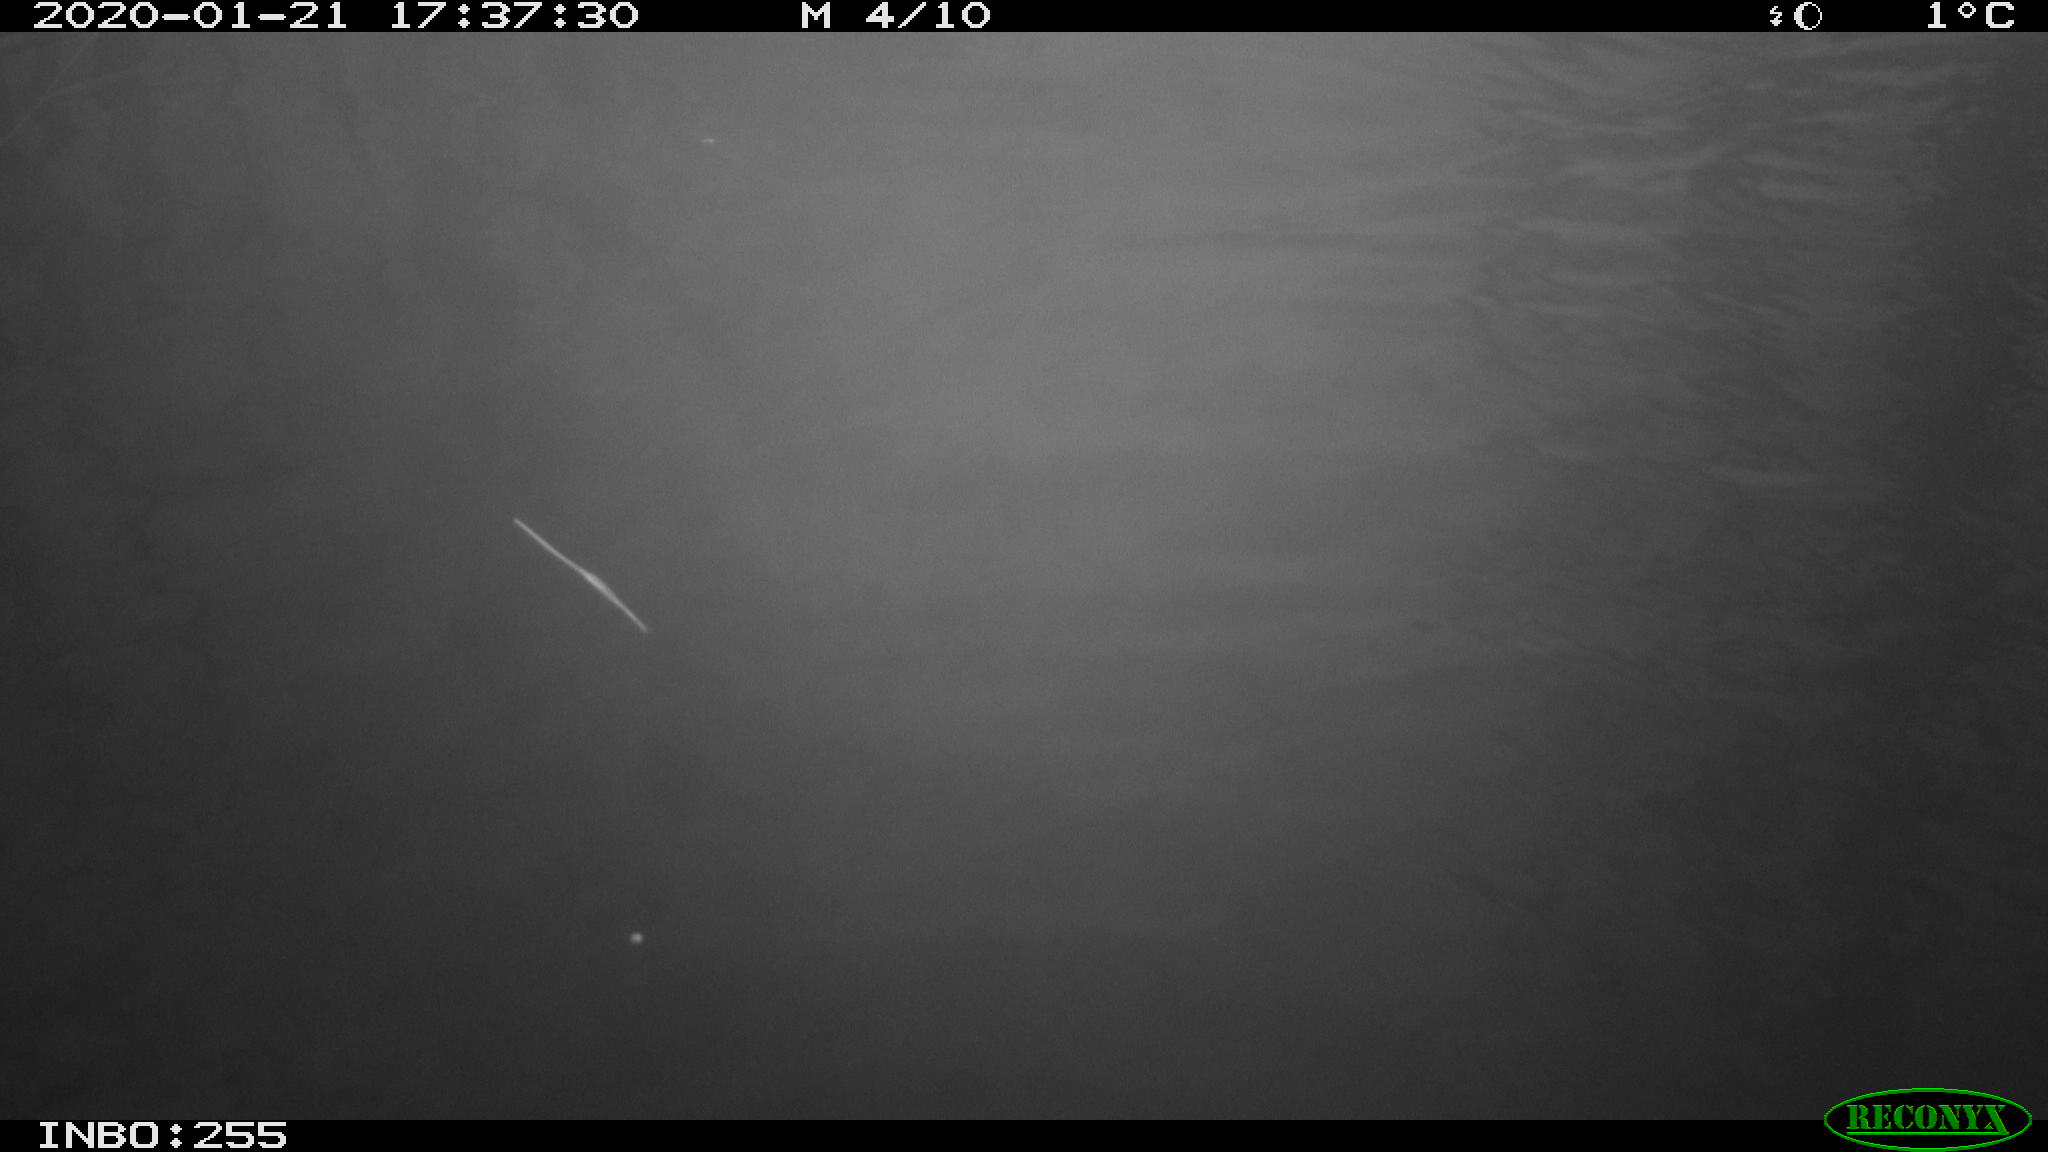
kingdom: Animalia
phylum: Chordata
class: Aves
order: Anseriformes
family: Anatidae
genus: Anas
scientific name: Anas platyrhynchos
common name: Mallard
